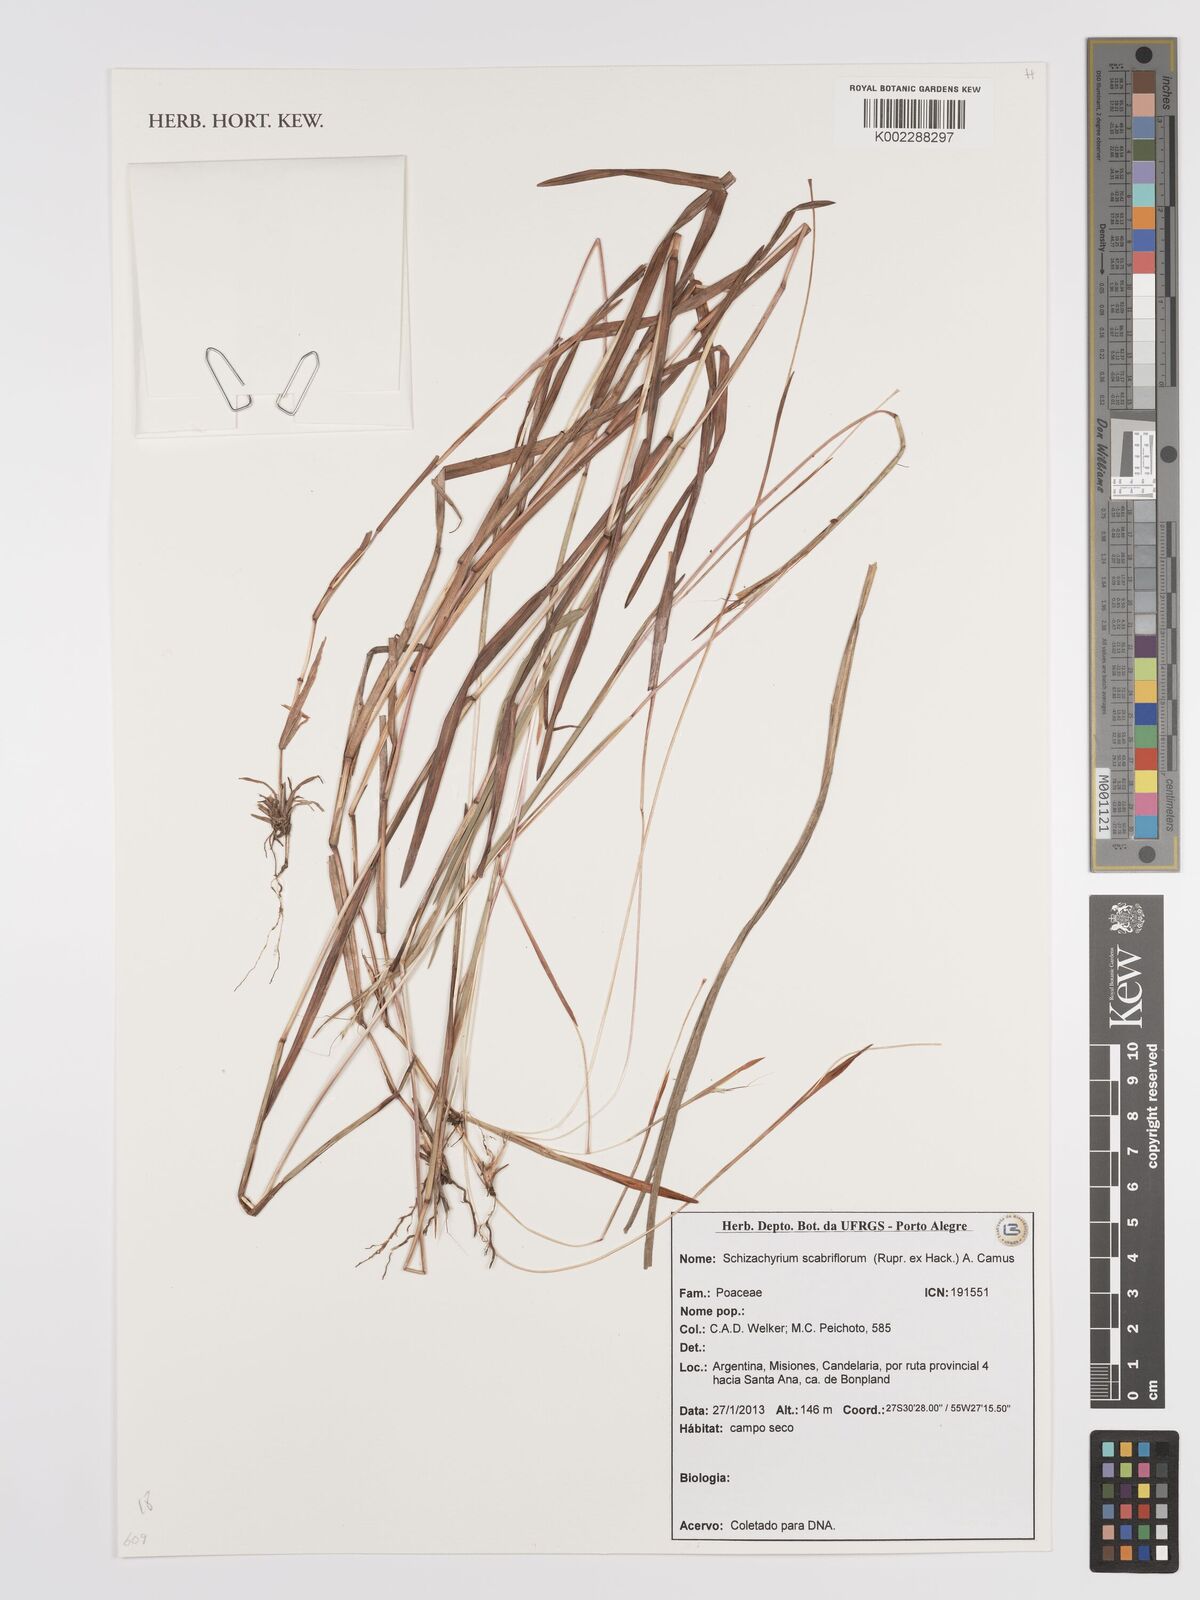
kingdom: Plantae
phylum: Tracheophyta
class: Liliopsida
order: Poales
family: Poaceae
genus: Schizachyrium
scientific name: Schizachyrium scabriflorum
